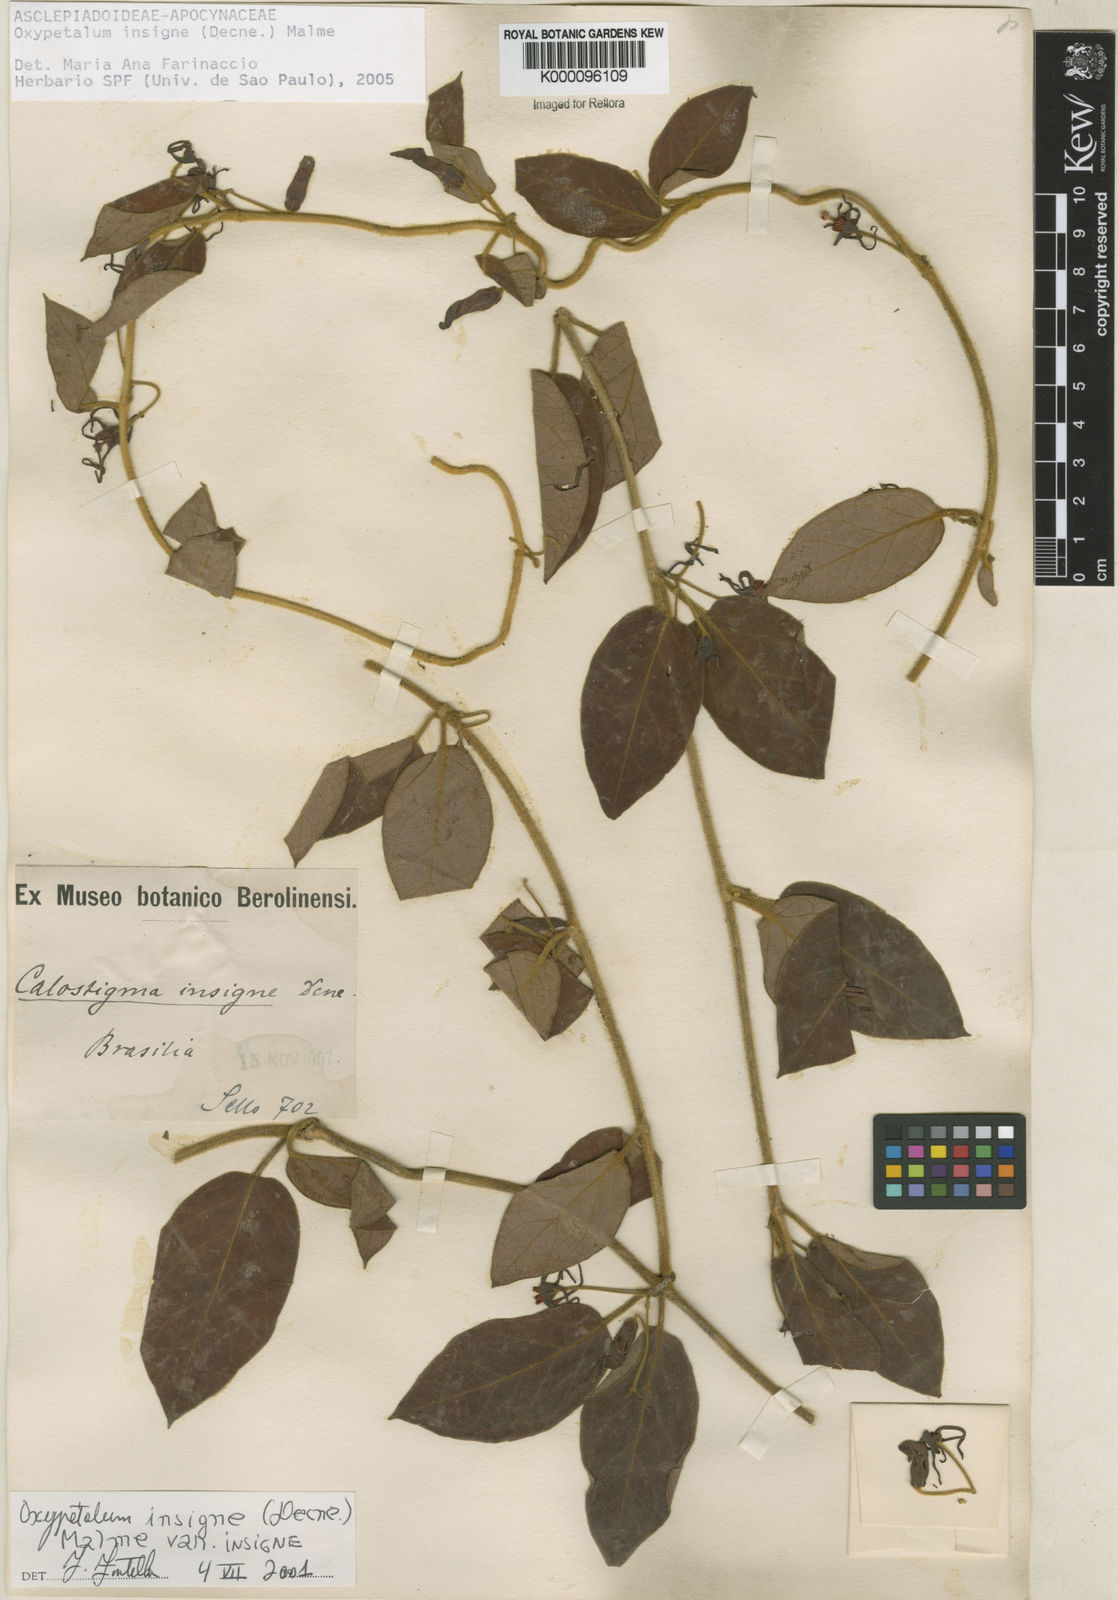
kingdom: Plantae
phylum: Tracheophyta
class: Magnoliopsida
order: Gentianales
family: Apocynaceae
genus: Oxypetalum
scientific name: Oxypetalum insigne
